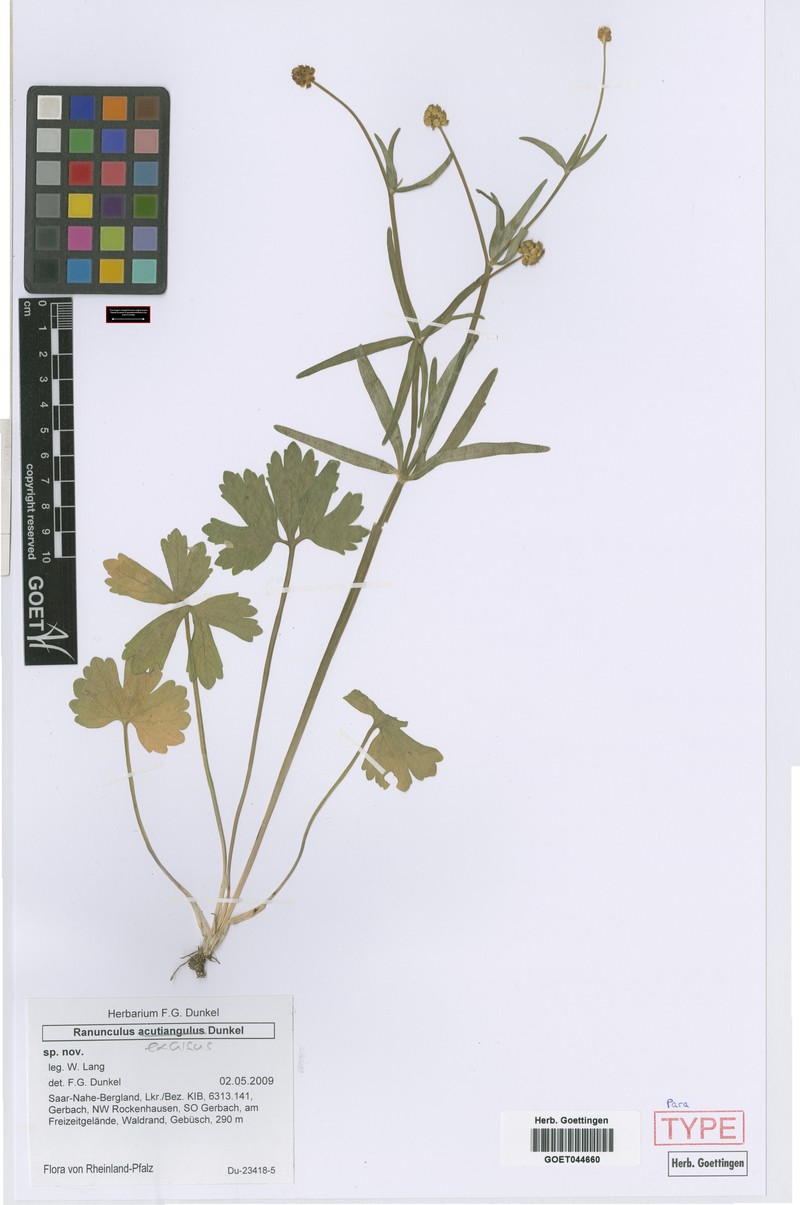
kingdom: Plantae
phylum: Tracheophyta
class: Magnoliopsida
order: Ranunculales
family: Ranunculaceae
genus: Ranunculus
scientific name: Ranunculus excisus
